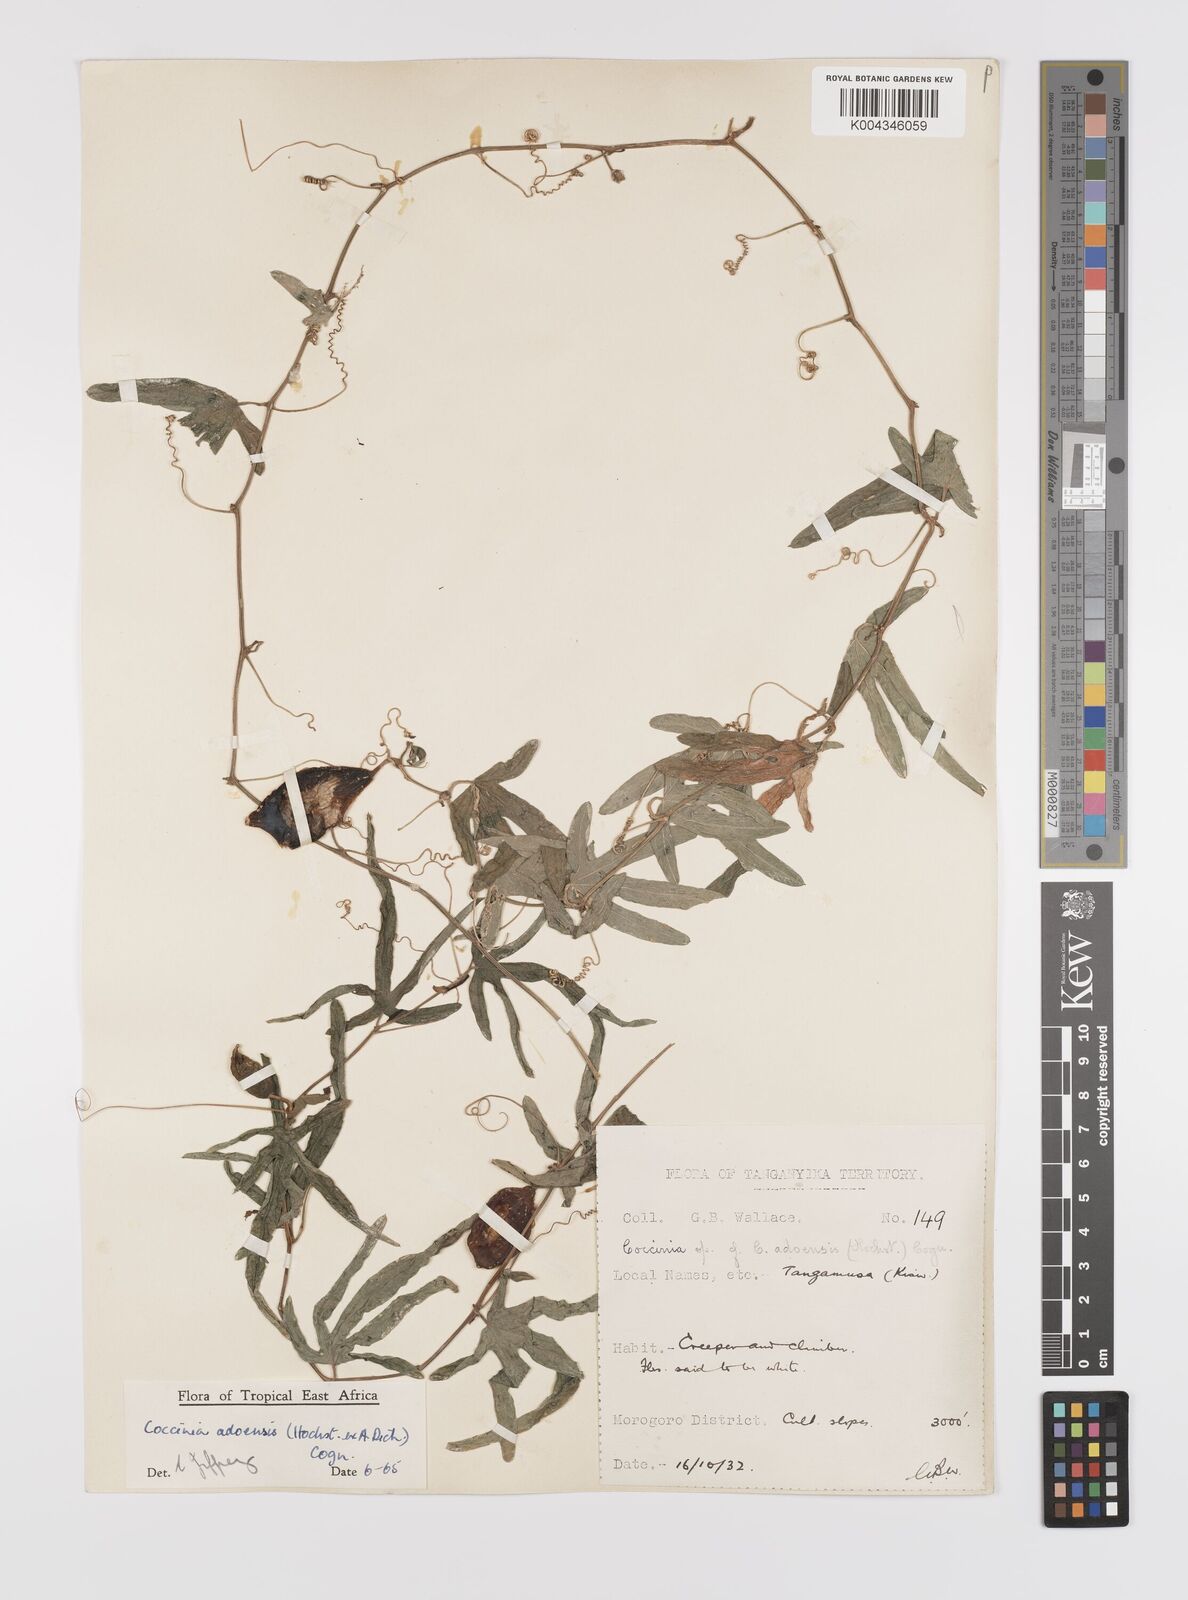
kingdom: Plantae
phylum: Tracheophyta
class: Magnoliopsida
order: Cucurbitales
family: Cucurbitaceae
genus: Coccinia
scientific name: Coccinia adoensis
